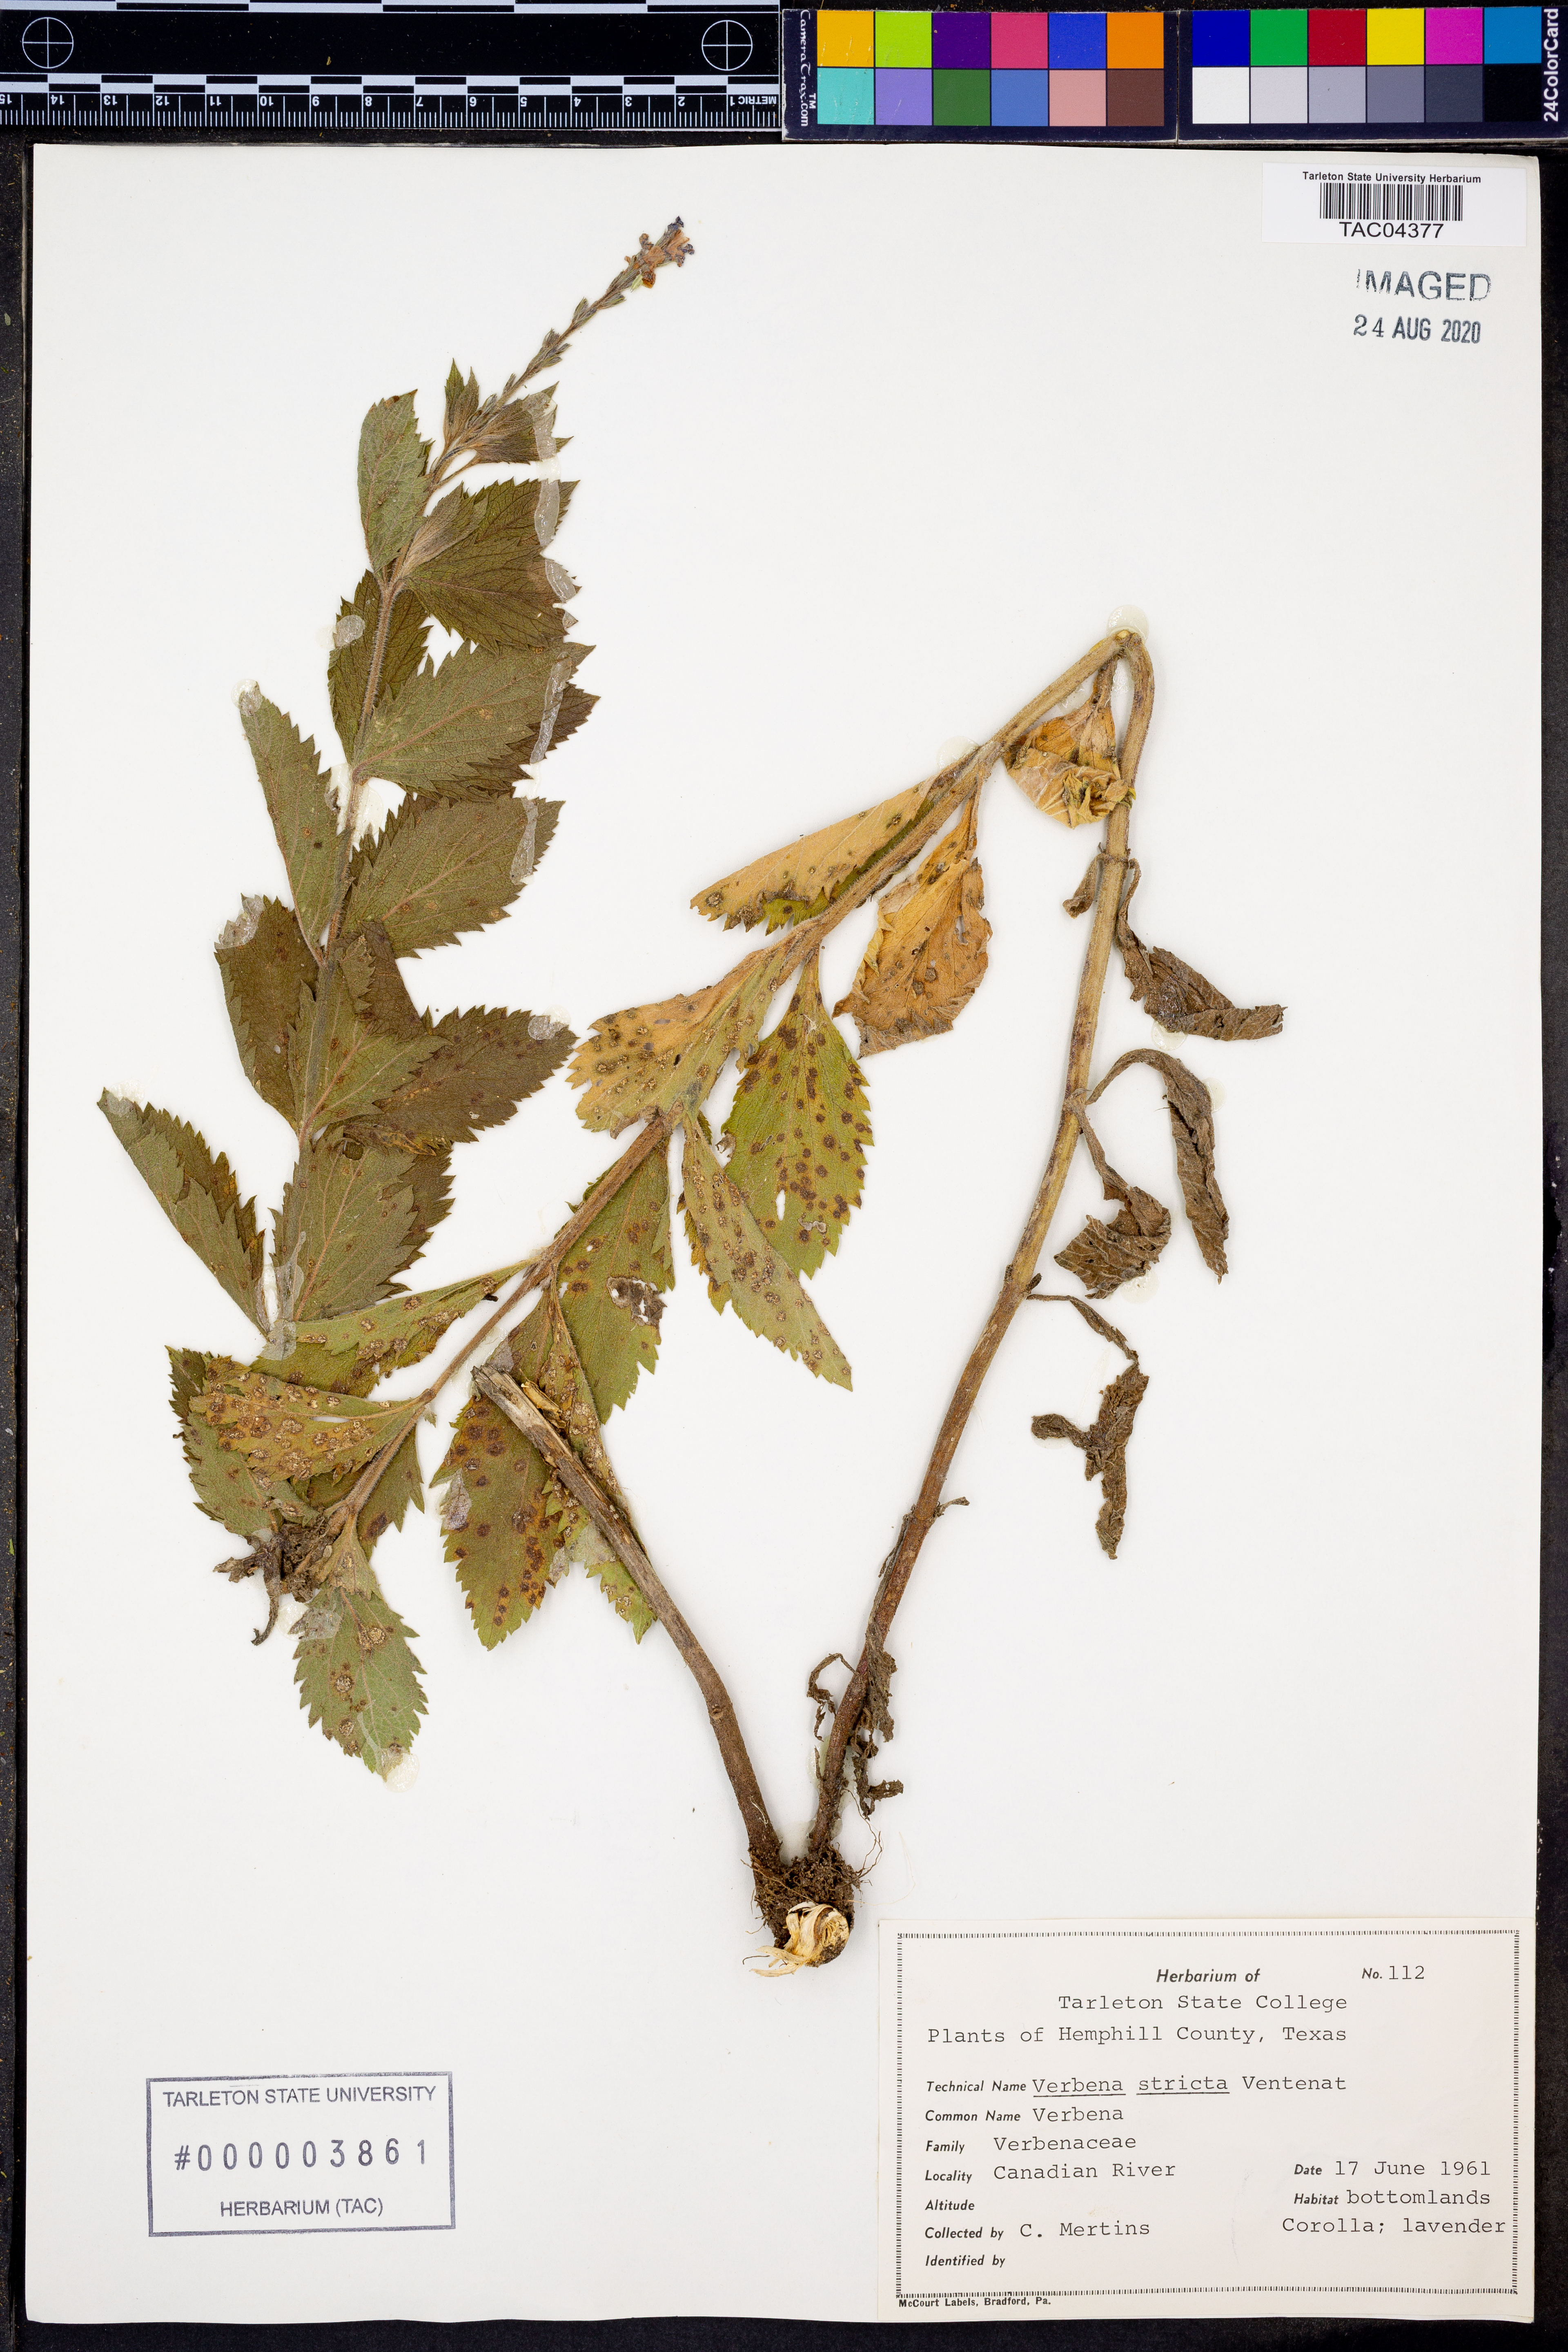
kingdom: Plantae
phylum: Tracheophyta
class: Magnoliopsida
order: Lamiales
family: Verbenaceae
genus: Verbena
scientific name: Verbena stricta
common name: Hoary vervain
